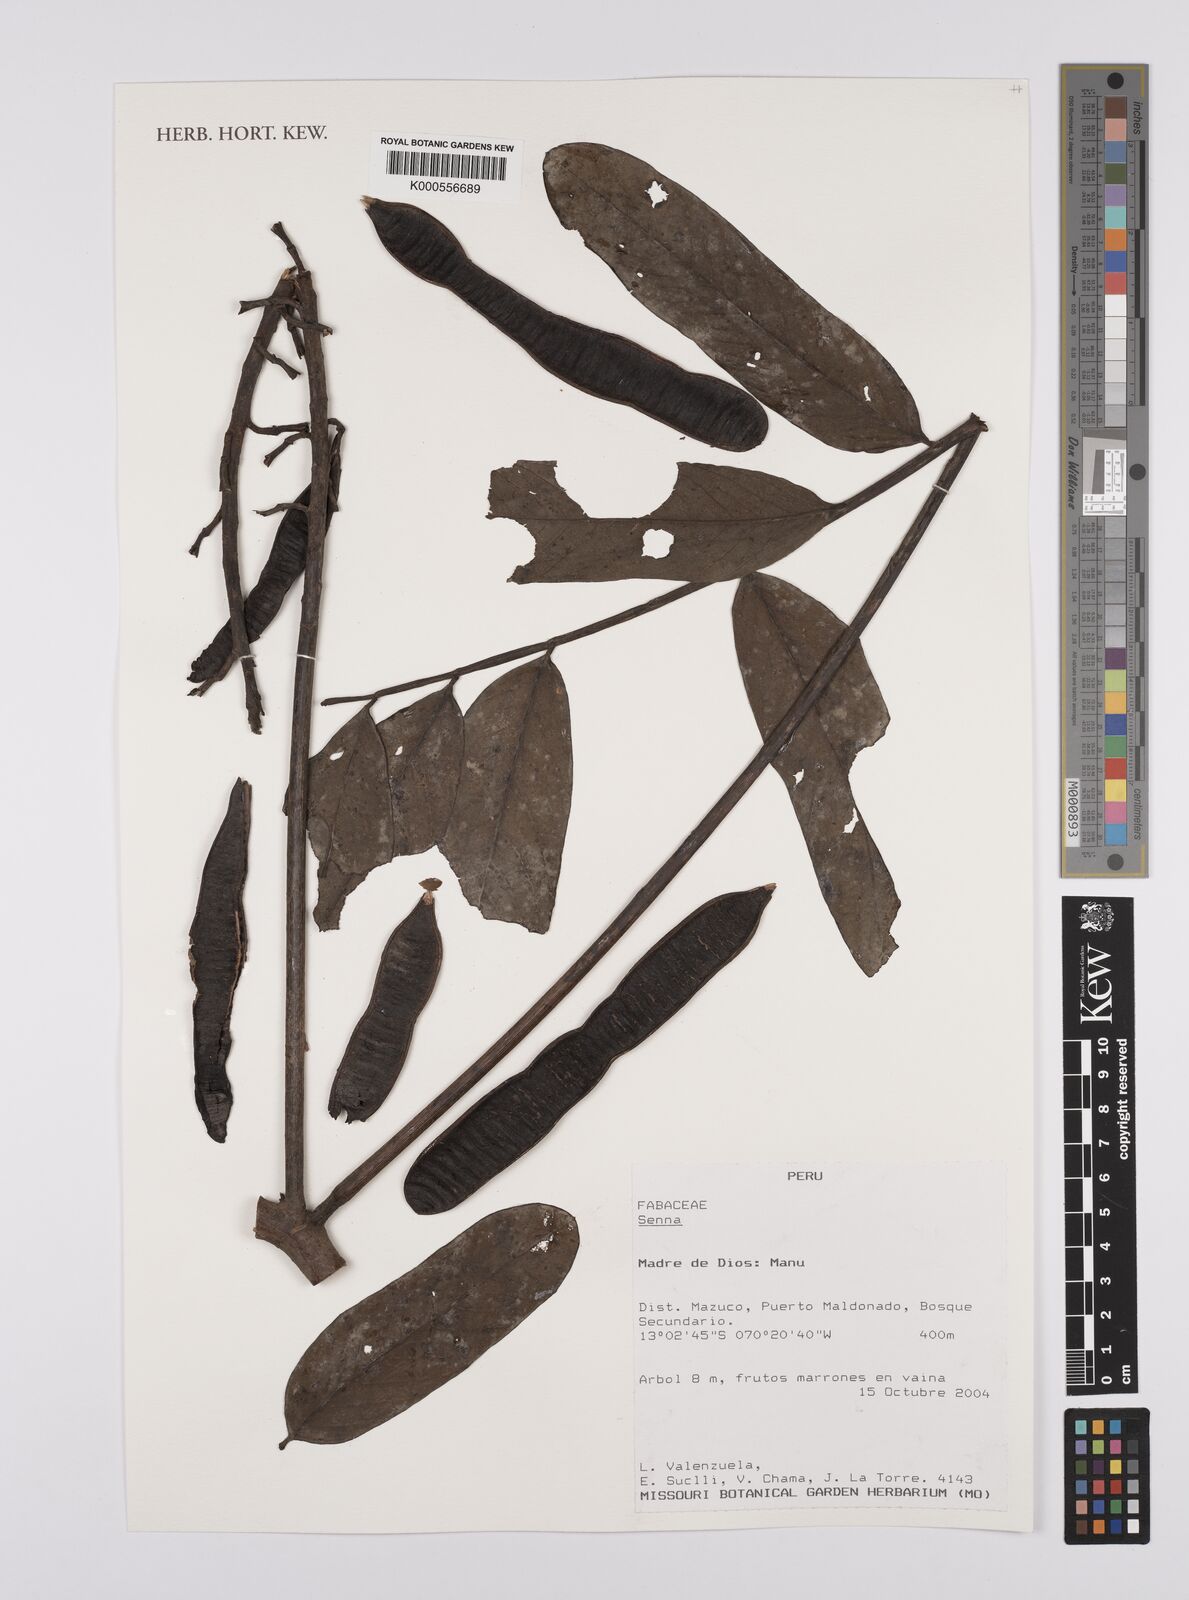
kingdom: Plantae
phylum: Tracheophyta
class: Magnoliopsida
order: Fabales
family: Fabaceae
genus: Senna
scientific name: Senna
